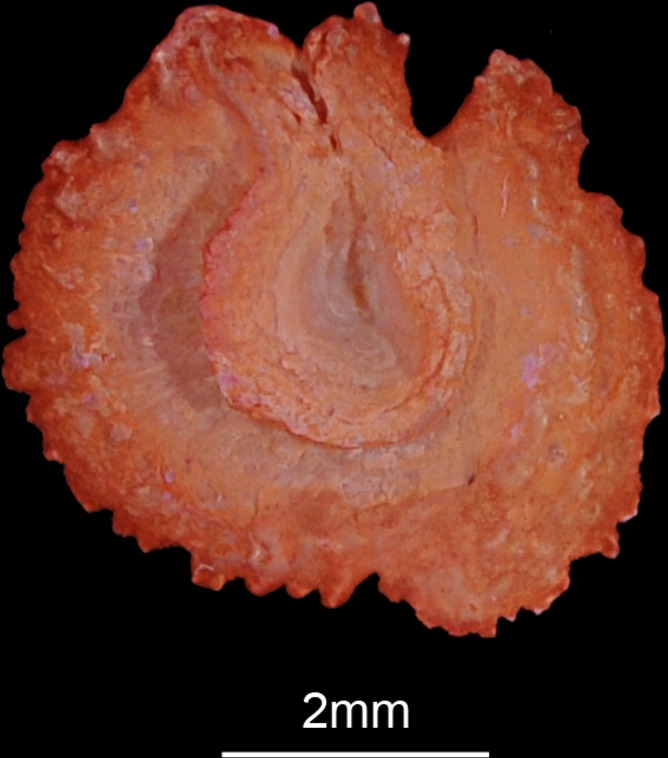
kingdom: Animalia
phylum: Chordata
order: Cypriniformes
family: Cyprinidae
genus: Leuciscus
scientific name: Leuciscus idus
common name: Ide
